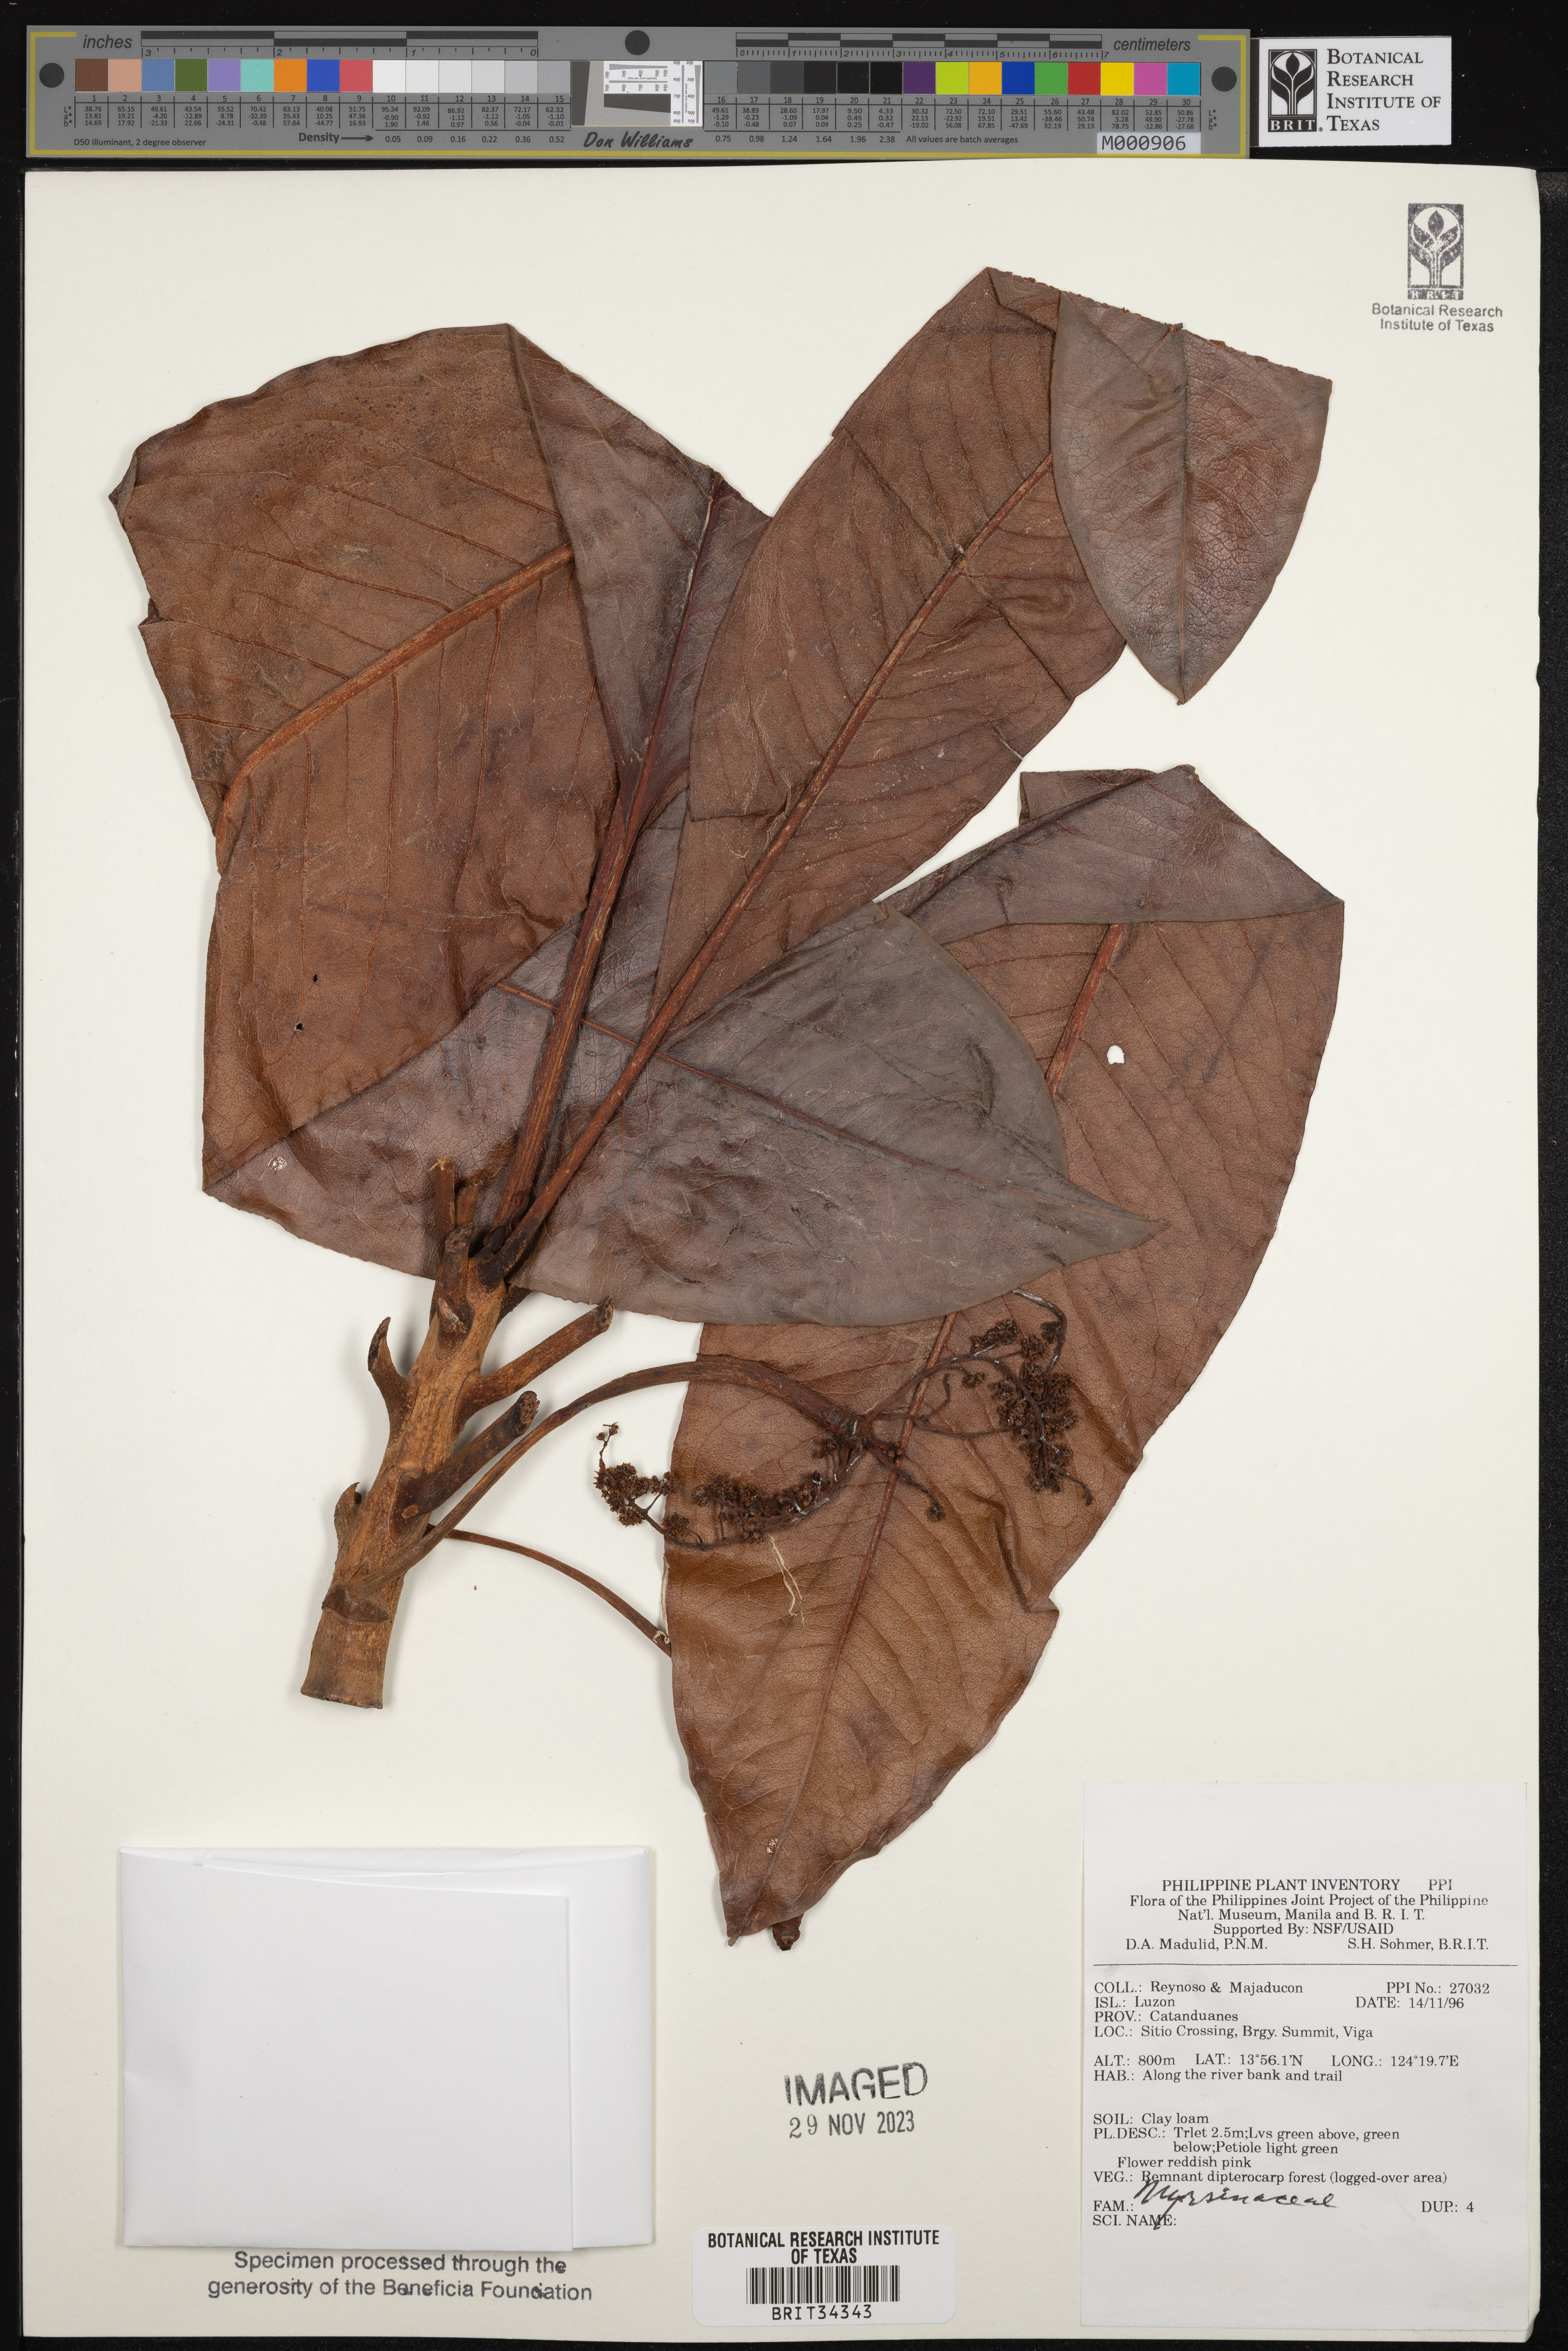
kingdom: Plantae
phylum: Tracheophyta
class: Magnoliopsida
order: Ericales
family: Primulaceae
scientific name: Primulaceae
